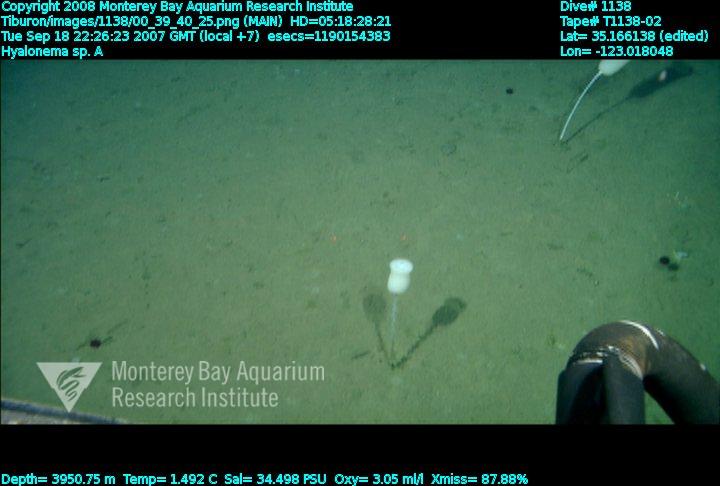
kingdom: Animalia
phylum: Porifera
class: Hexactinellida
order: Amphidiscosida
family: Hyalonematidae
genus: Hyalonema
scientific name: Hyalonema
